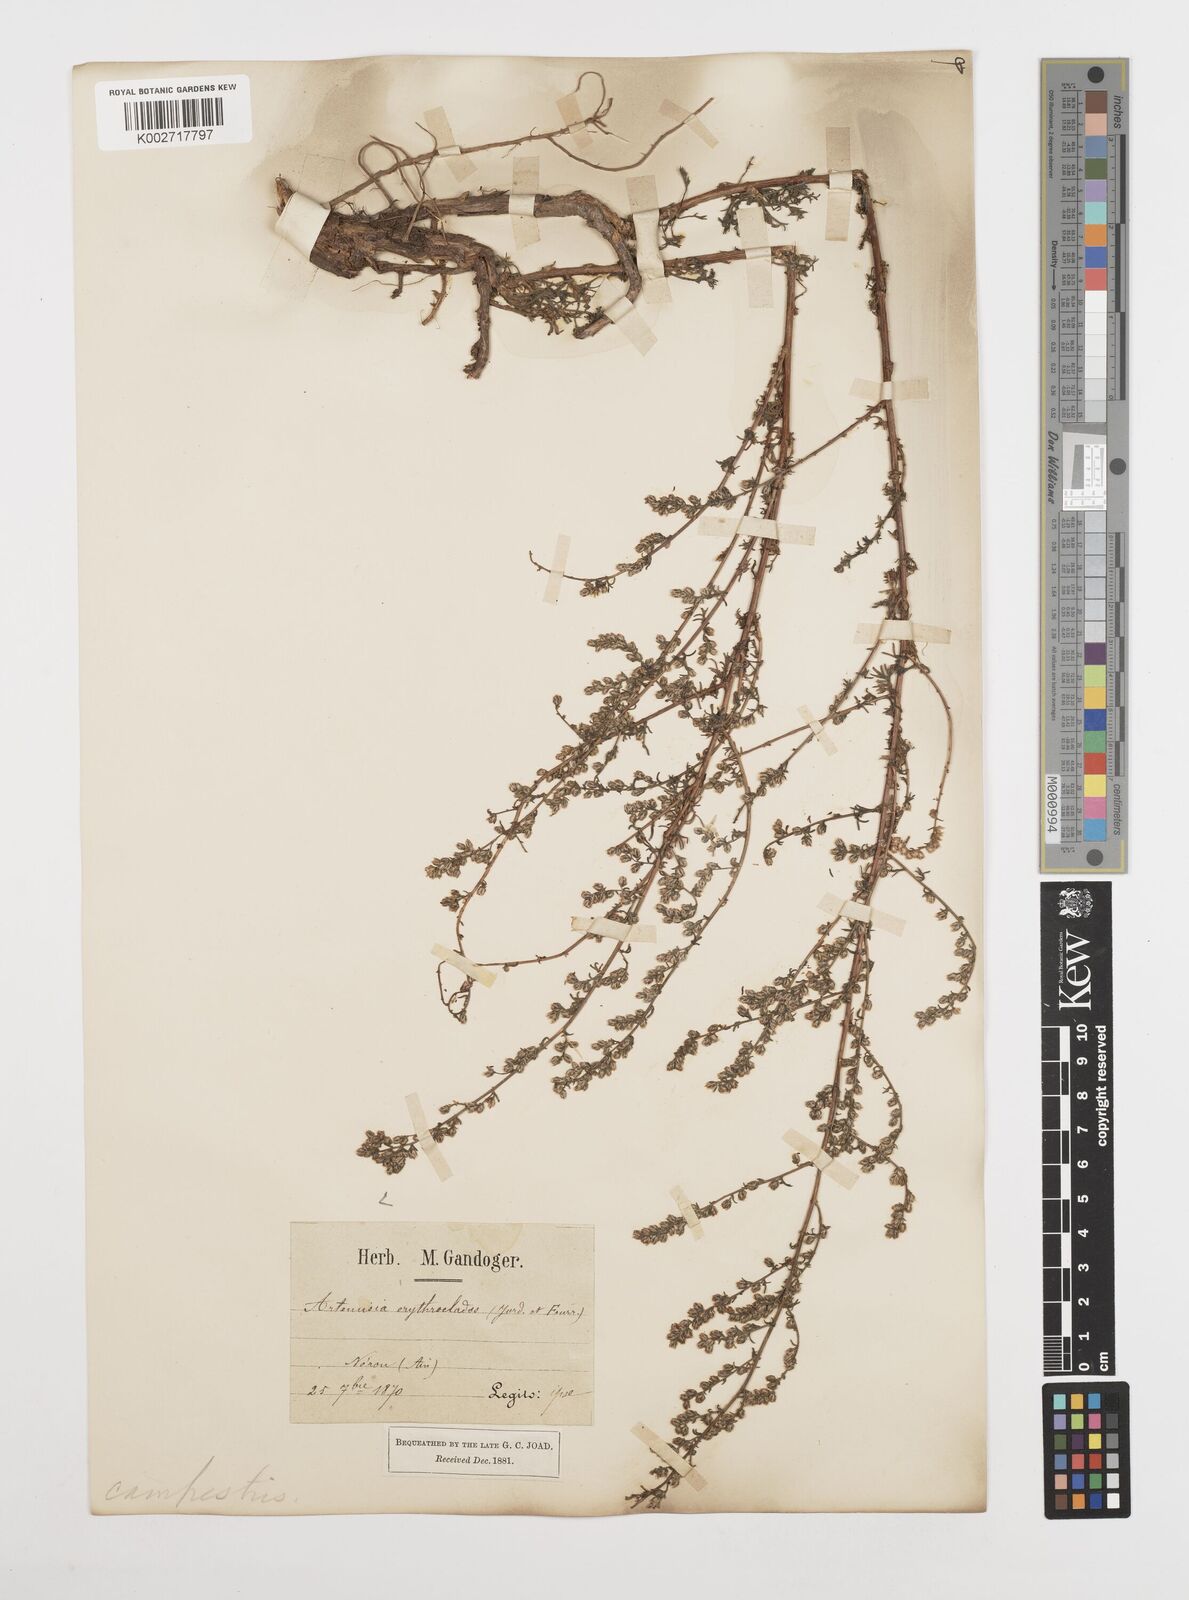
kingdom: Plantae
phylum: Tracheophyta
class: Magnoliopsida
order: Asterales
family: Asteraceae
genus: Artemisia
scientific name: Artemisia campestris
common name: Field wormwood
